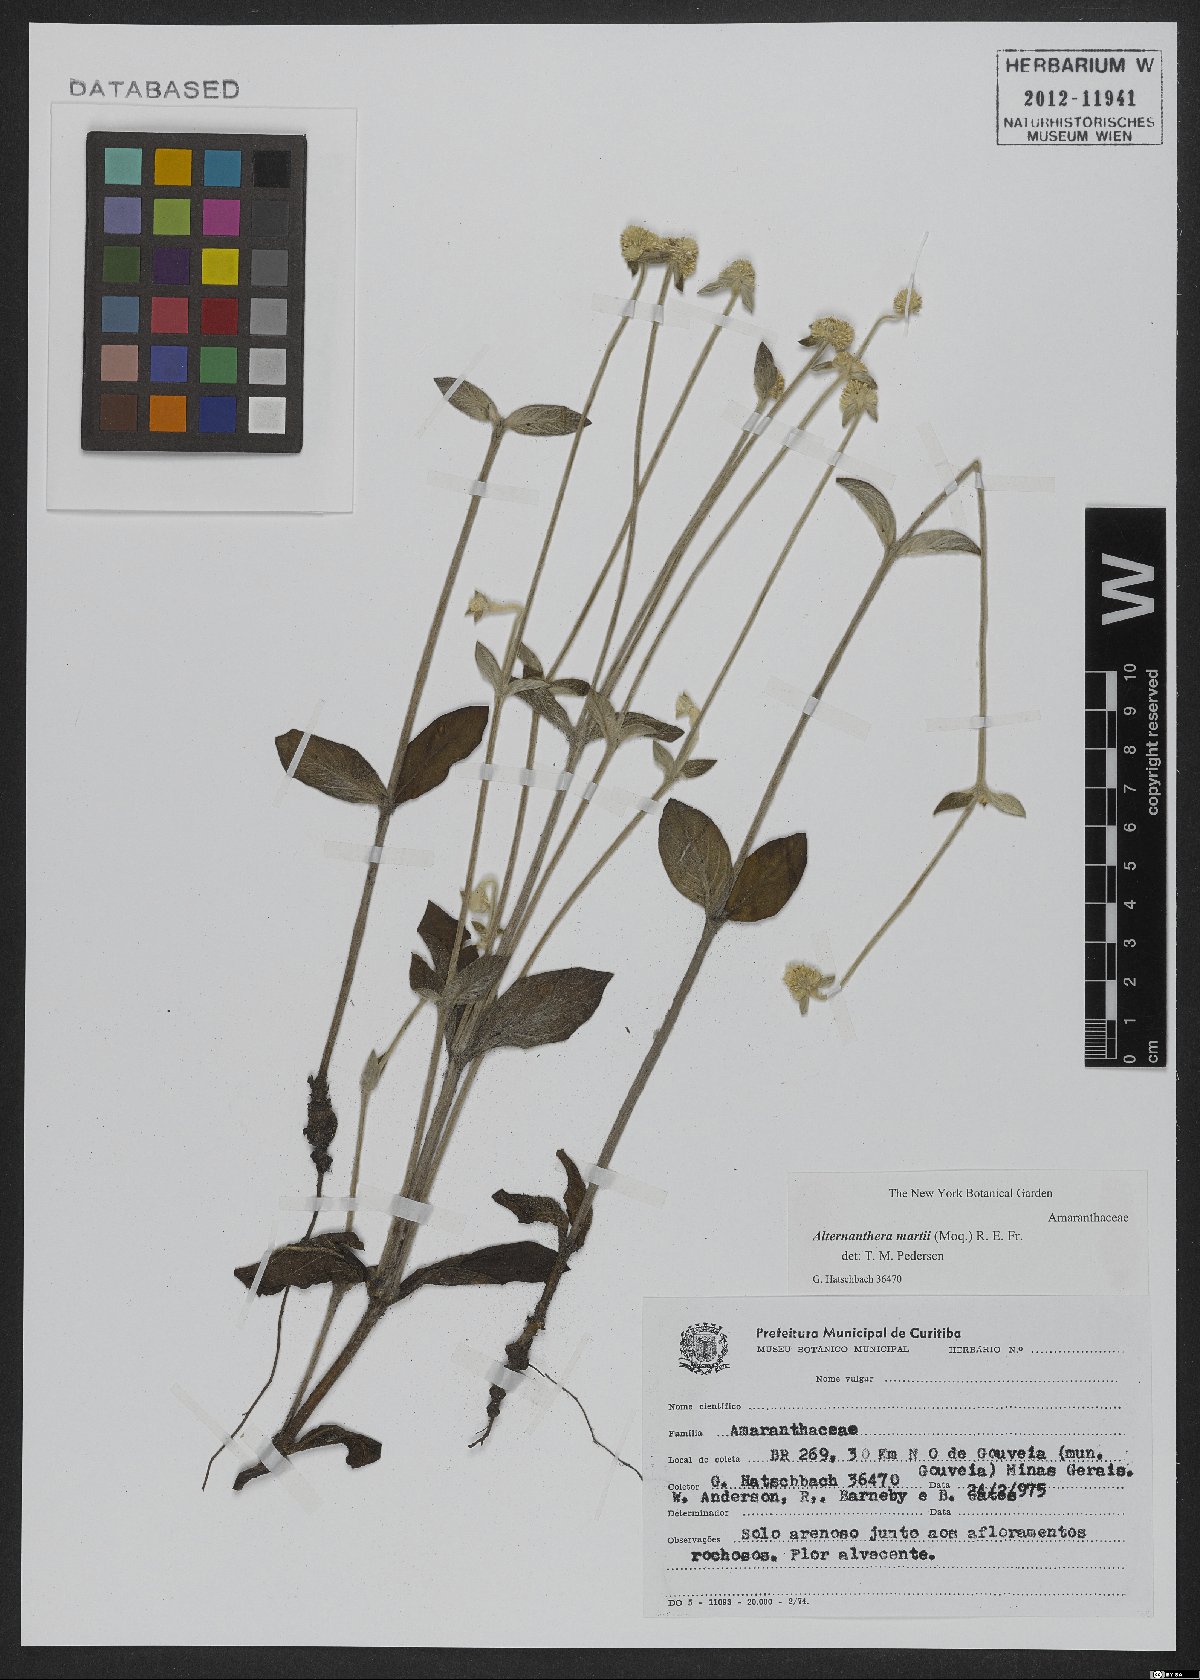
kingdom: Plantae
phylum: Tracheophyta
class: Magnoliopsida
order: Caryophyllales
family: Amaranthaceae
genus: Alternanthera
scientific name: Alternanthera martii
